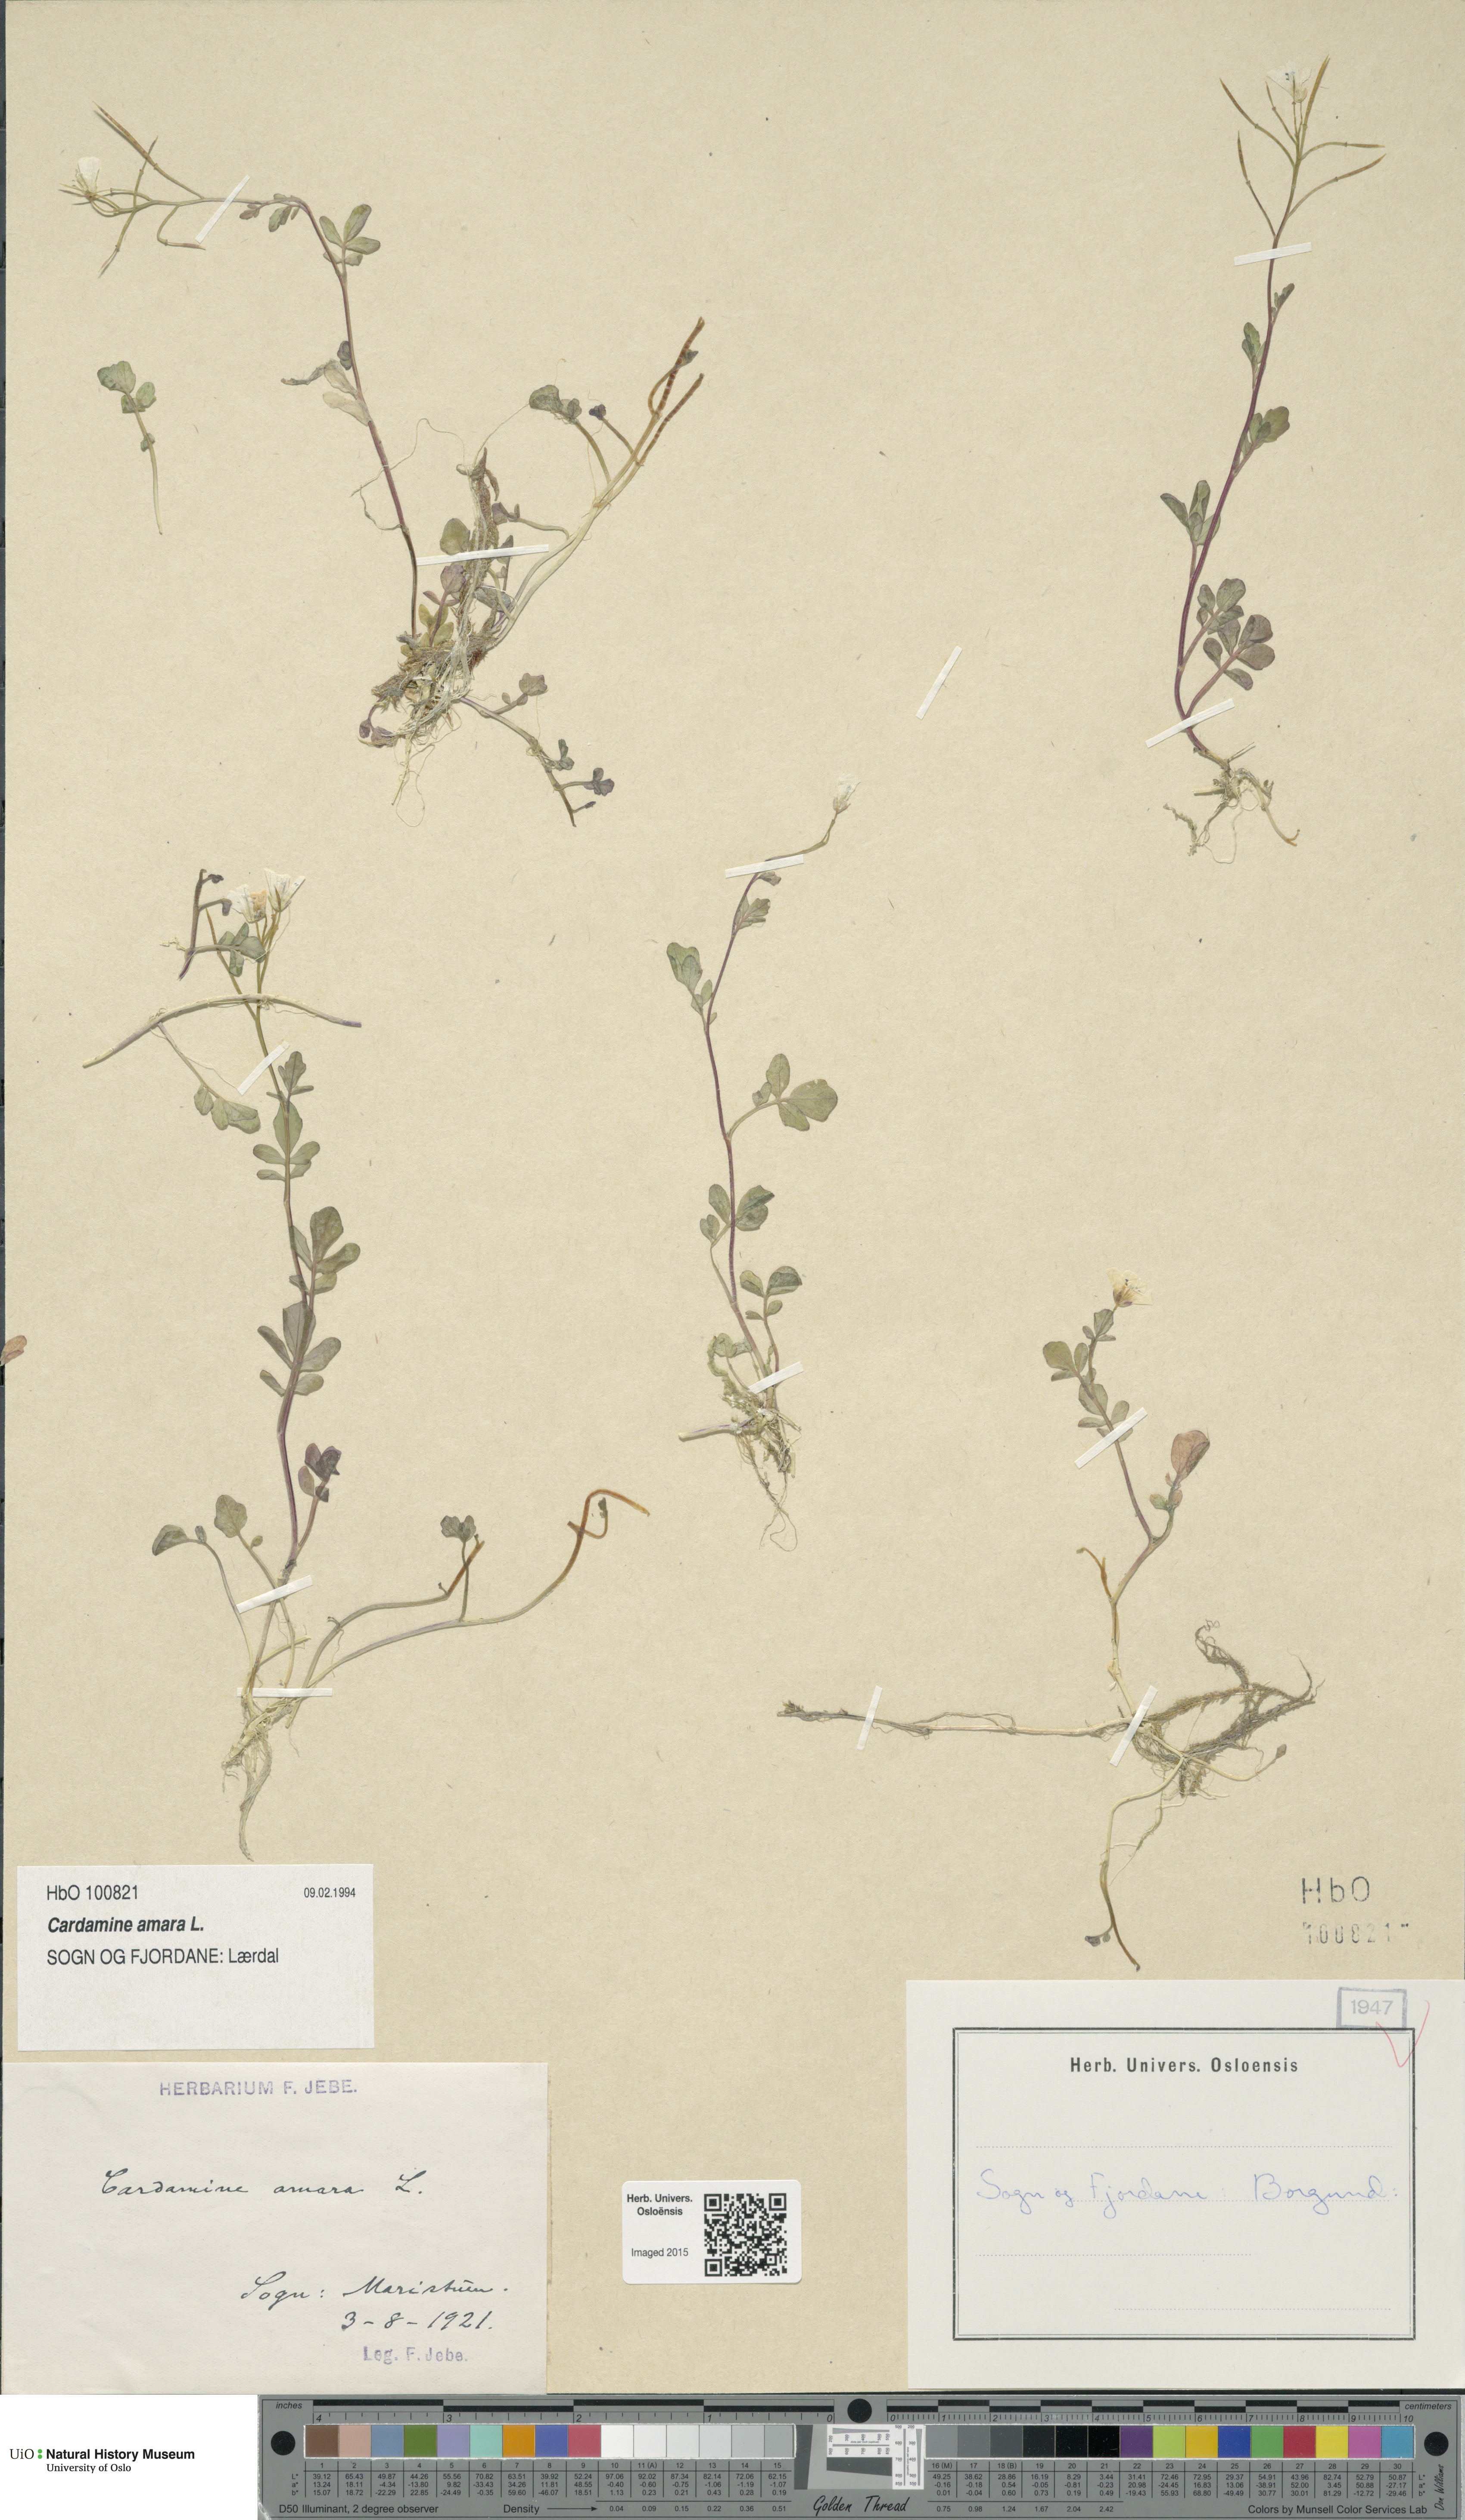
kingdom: Plantae
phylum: Tracheophyta
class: Magnoliopsida
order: Brassicales
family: Brassicaceae
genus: Cardamine
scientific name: Cardamine amara
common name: Large bitter-cress
